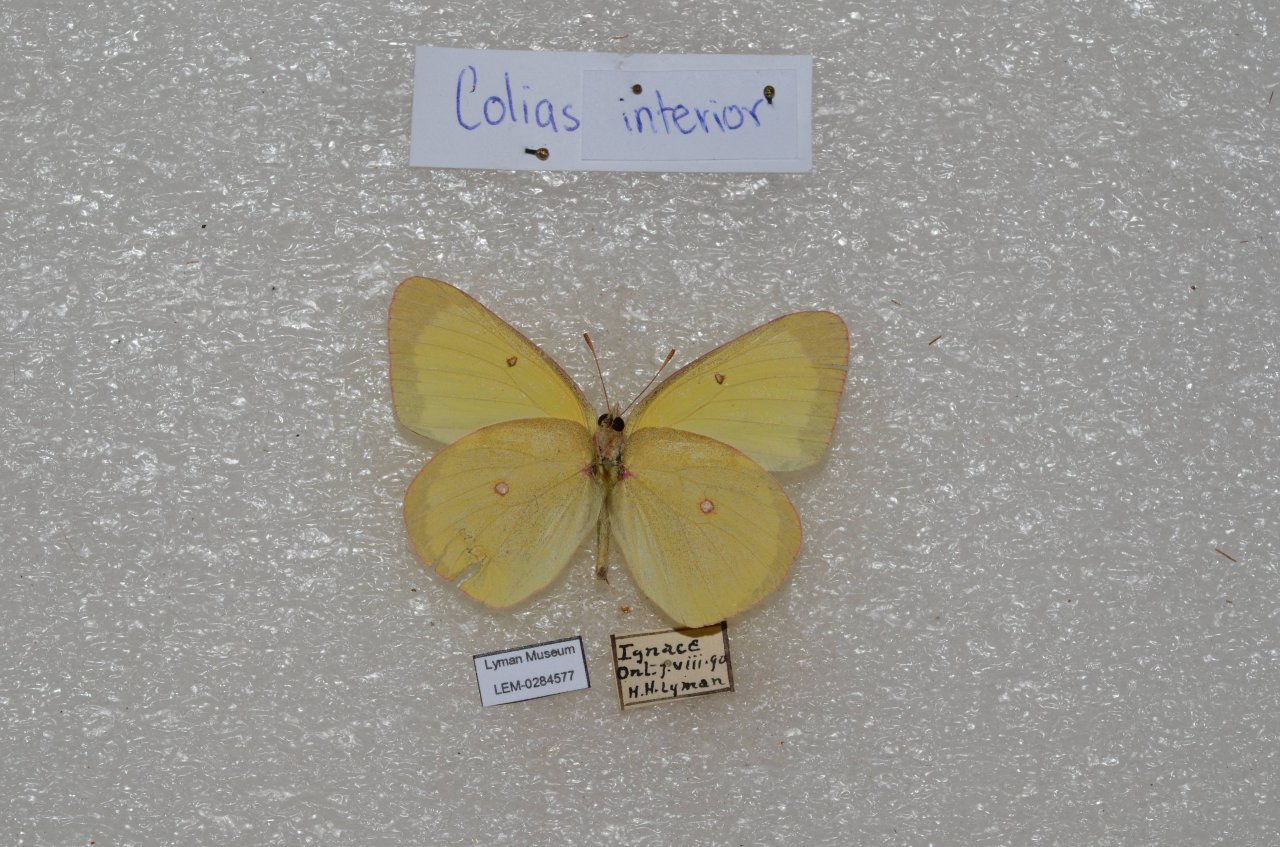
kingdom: Animalia
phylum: Arthropoda
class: Insecta
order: Lepidoptera
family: Pieridae
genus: Colias
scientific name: Colias interior
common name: Pink-edged Sulphur
